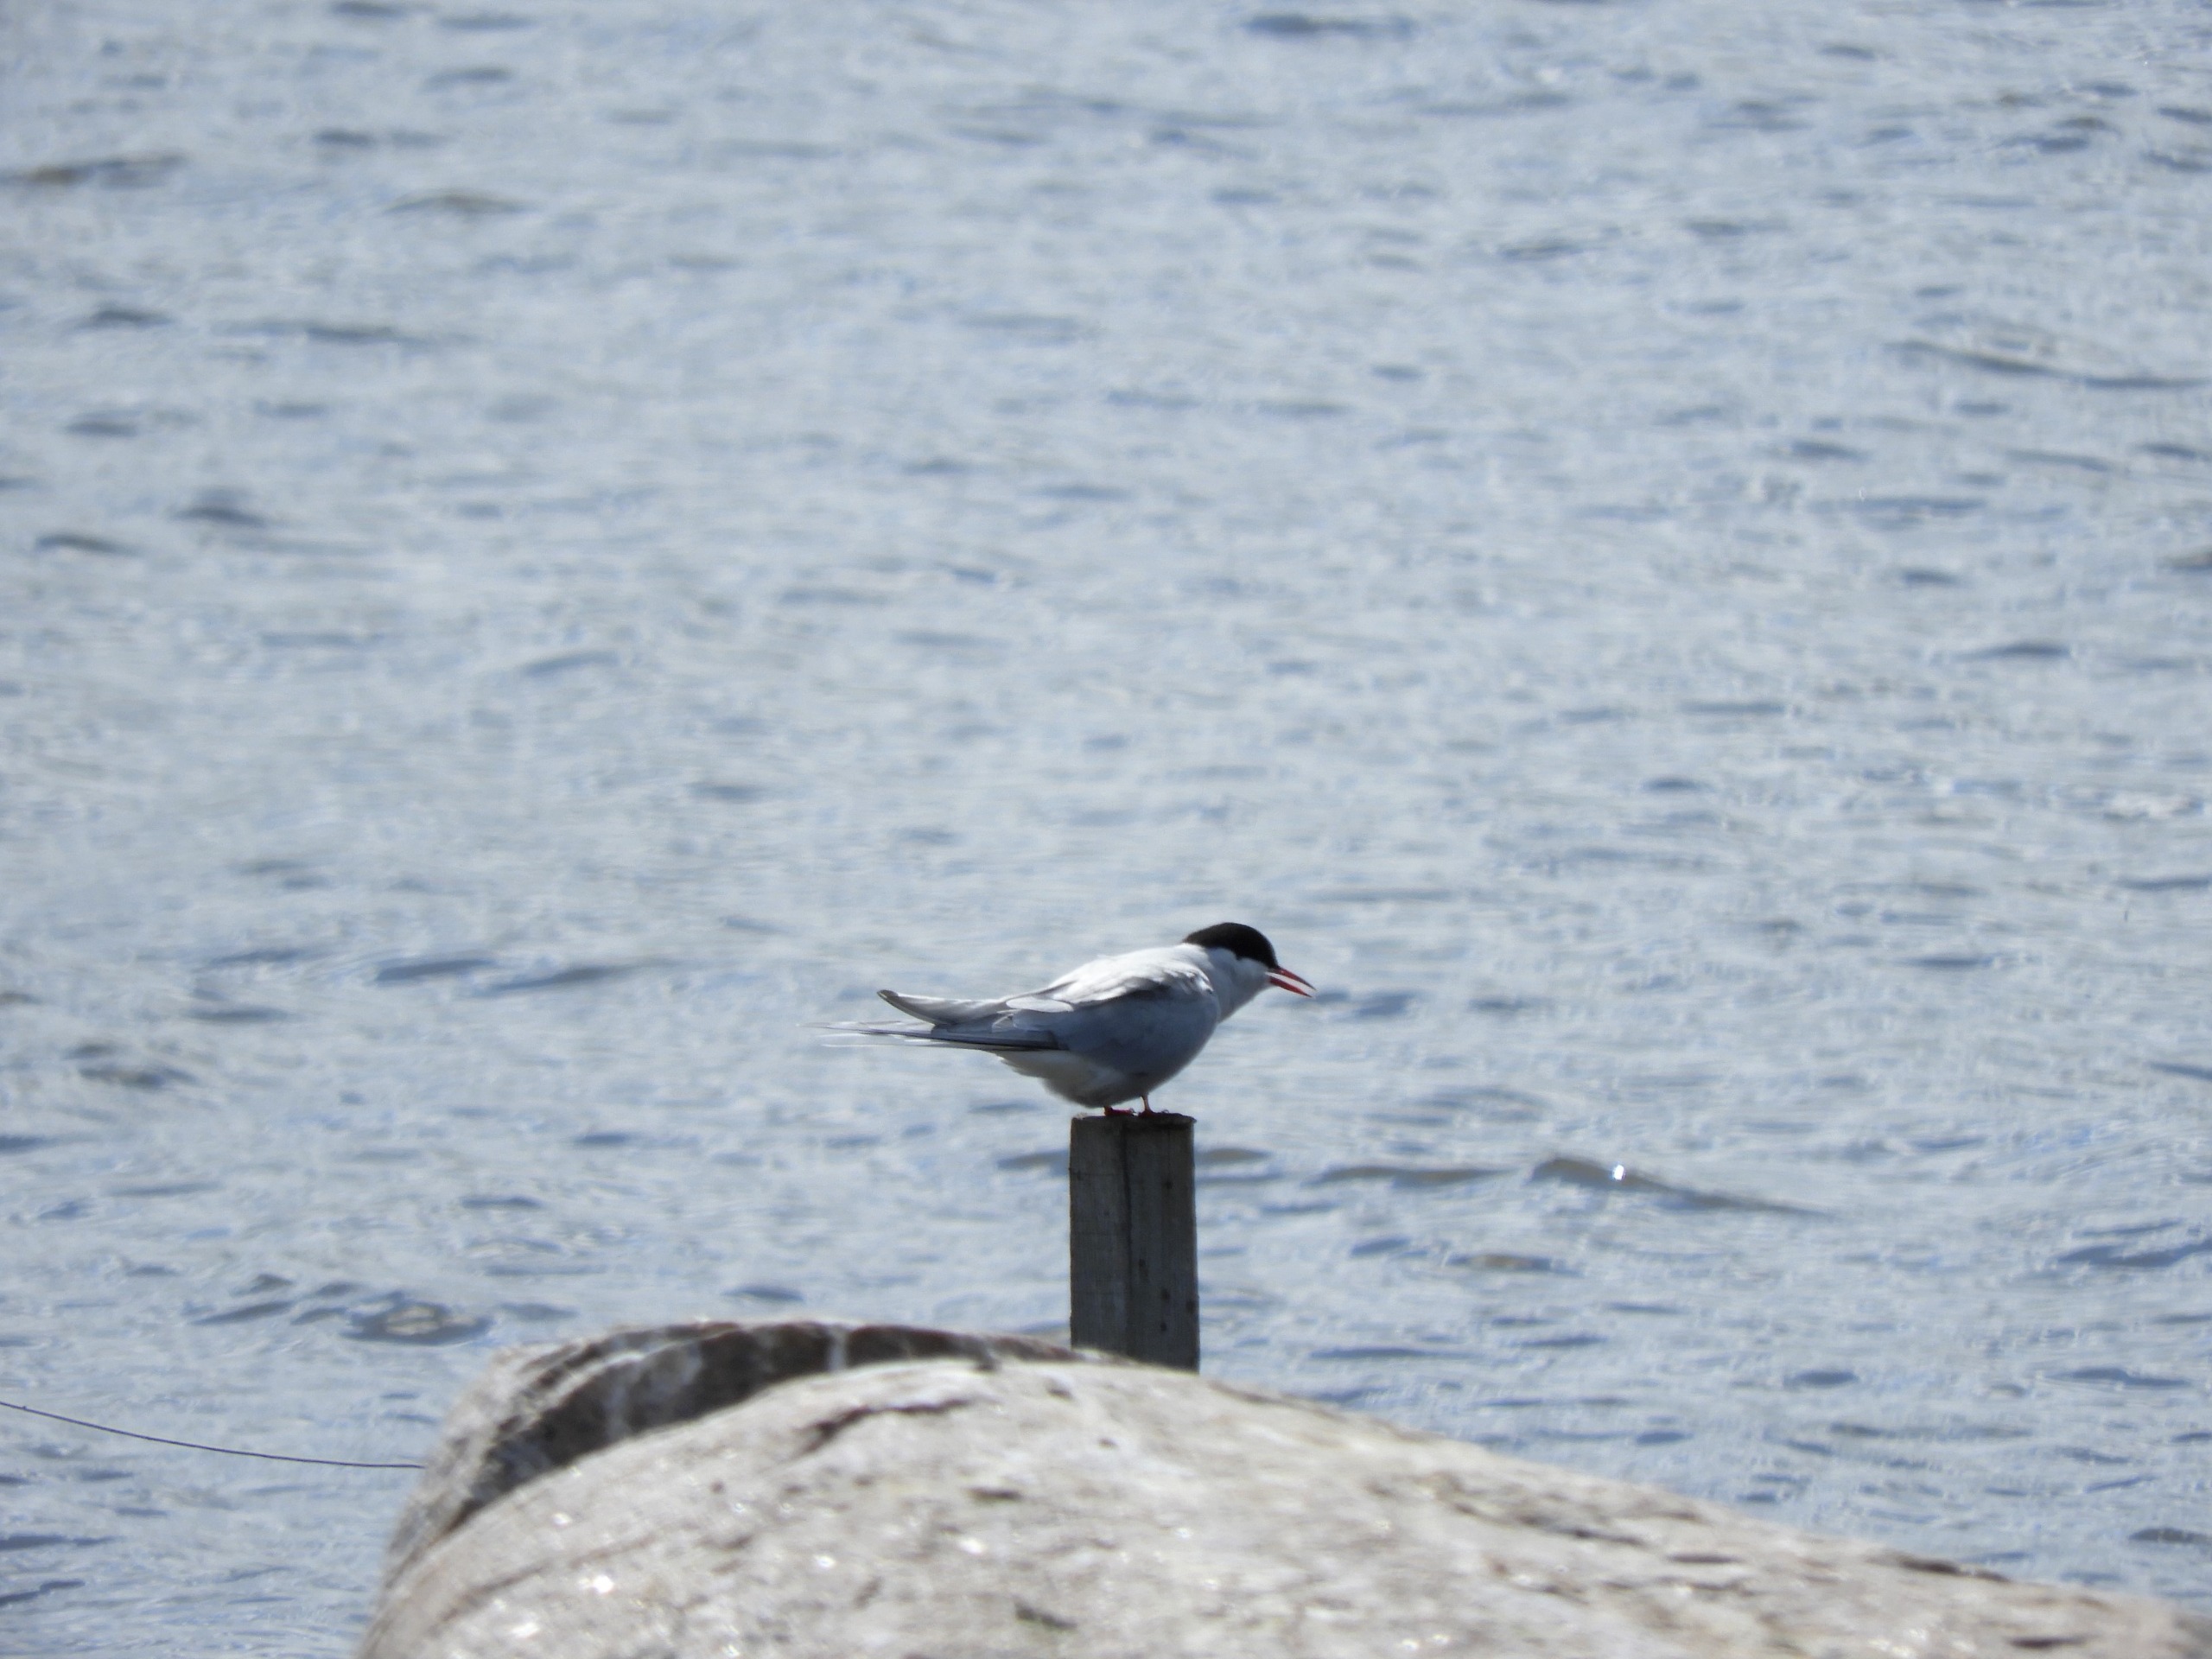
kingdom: Animalia
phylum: Chordata
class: Aves
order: Charadriiformes
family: Laridae
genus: Sterna
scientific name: Sterna paradisaea
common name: Havterne
